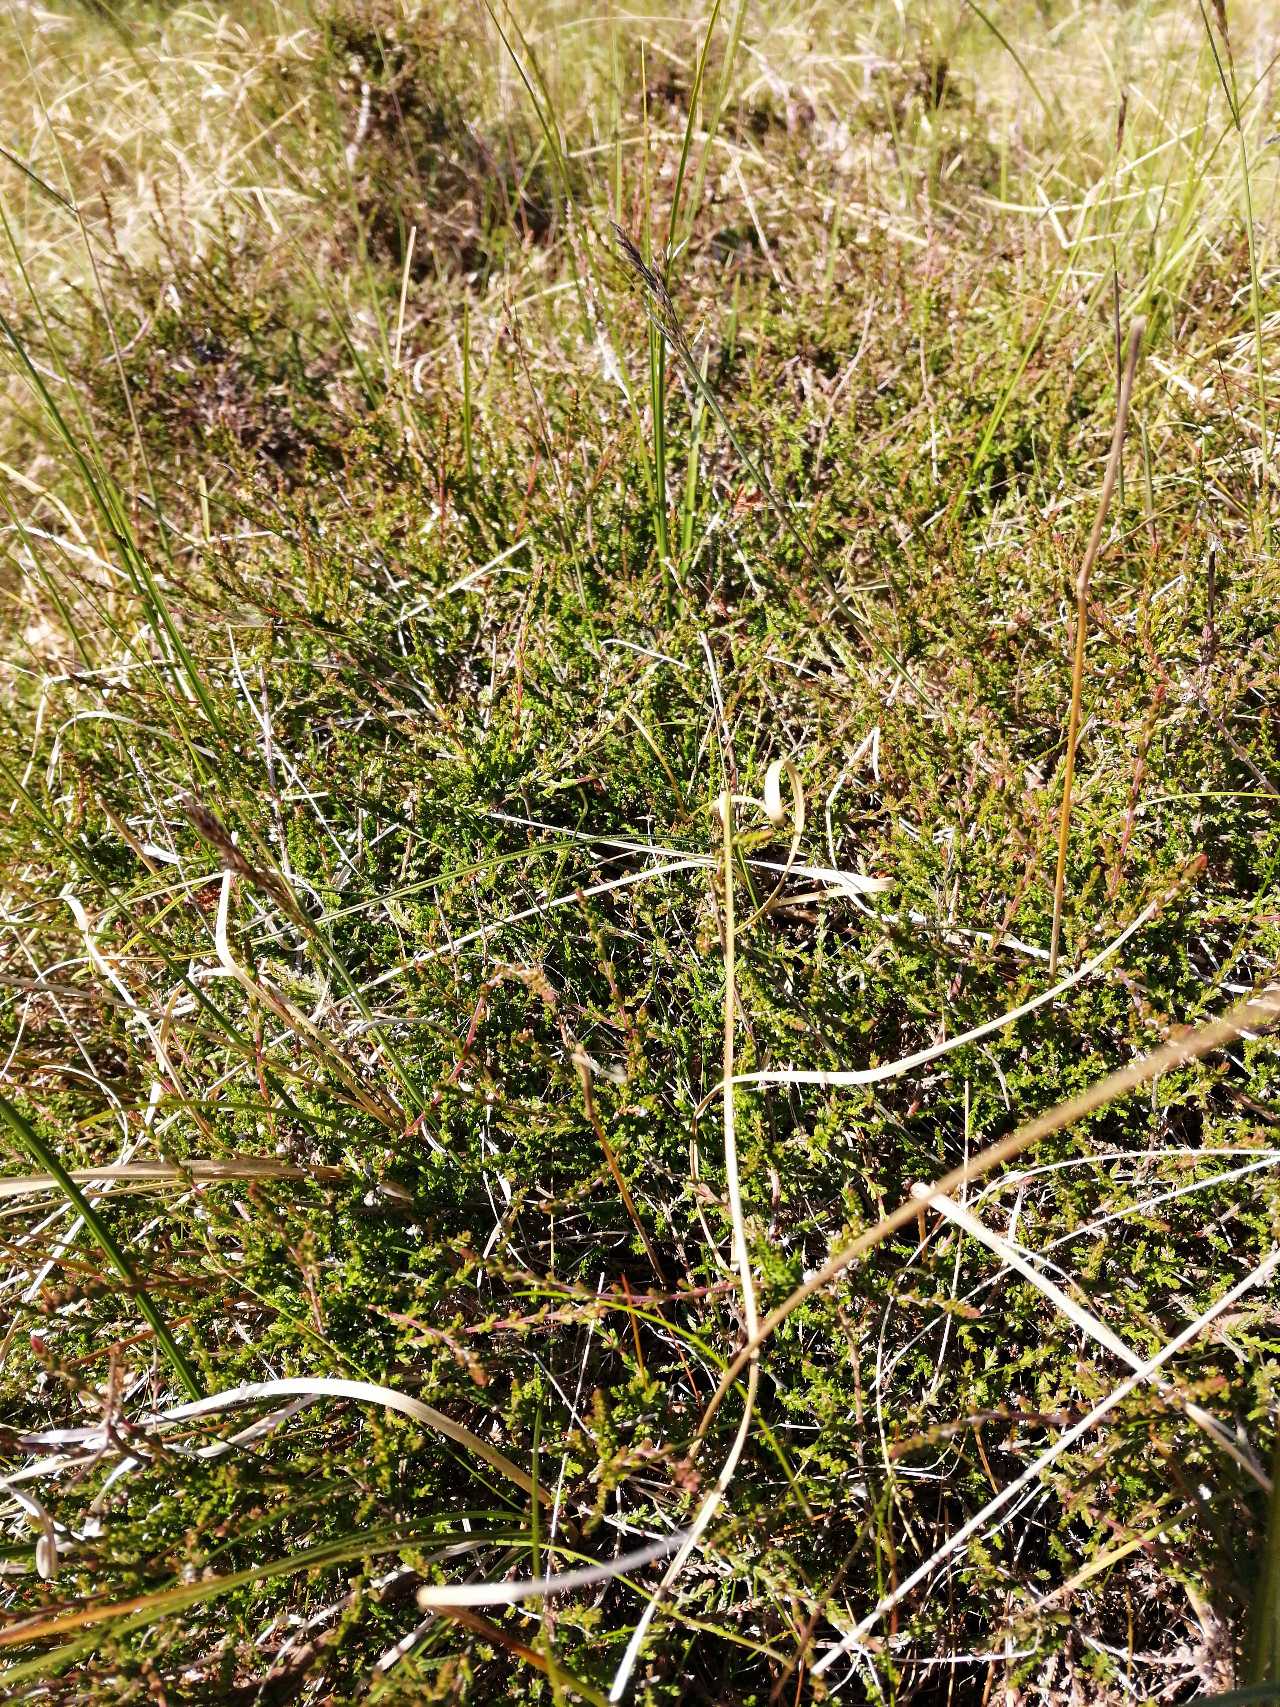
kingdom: Plantae
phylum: Tracheophyta
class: Magnoliopsida
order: Ericales
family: Ericaceae
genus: Calluna
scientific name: Calluna vulgaris
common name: Hedelyng
